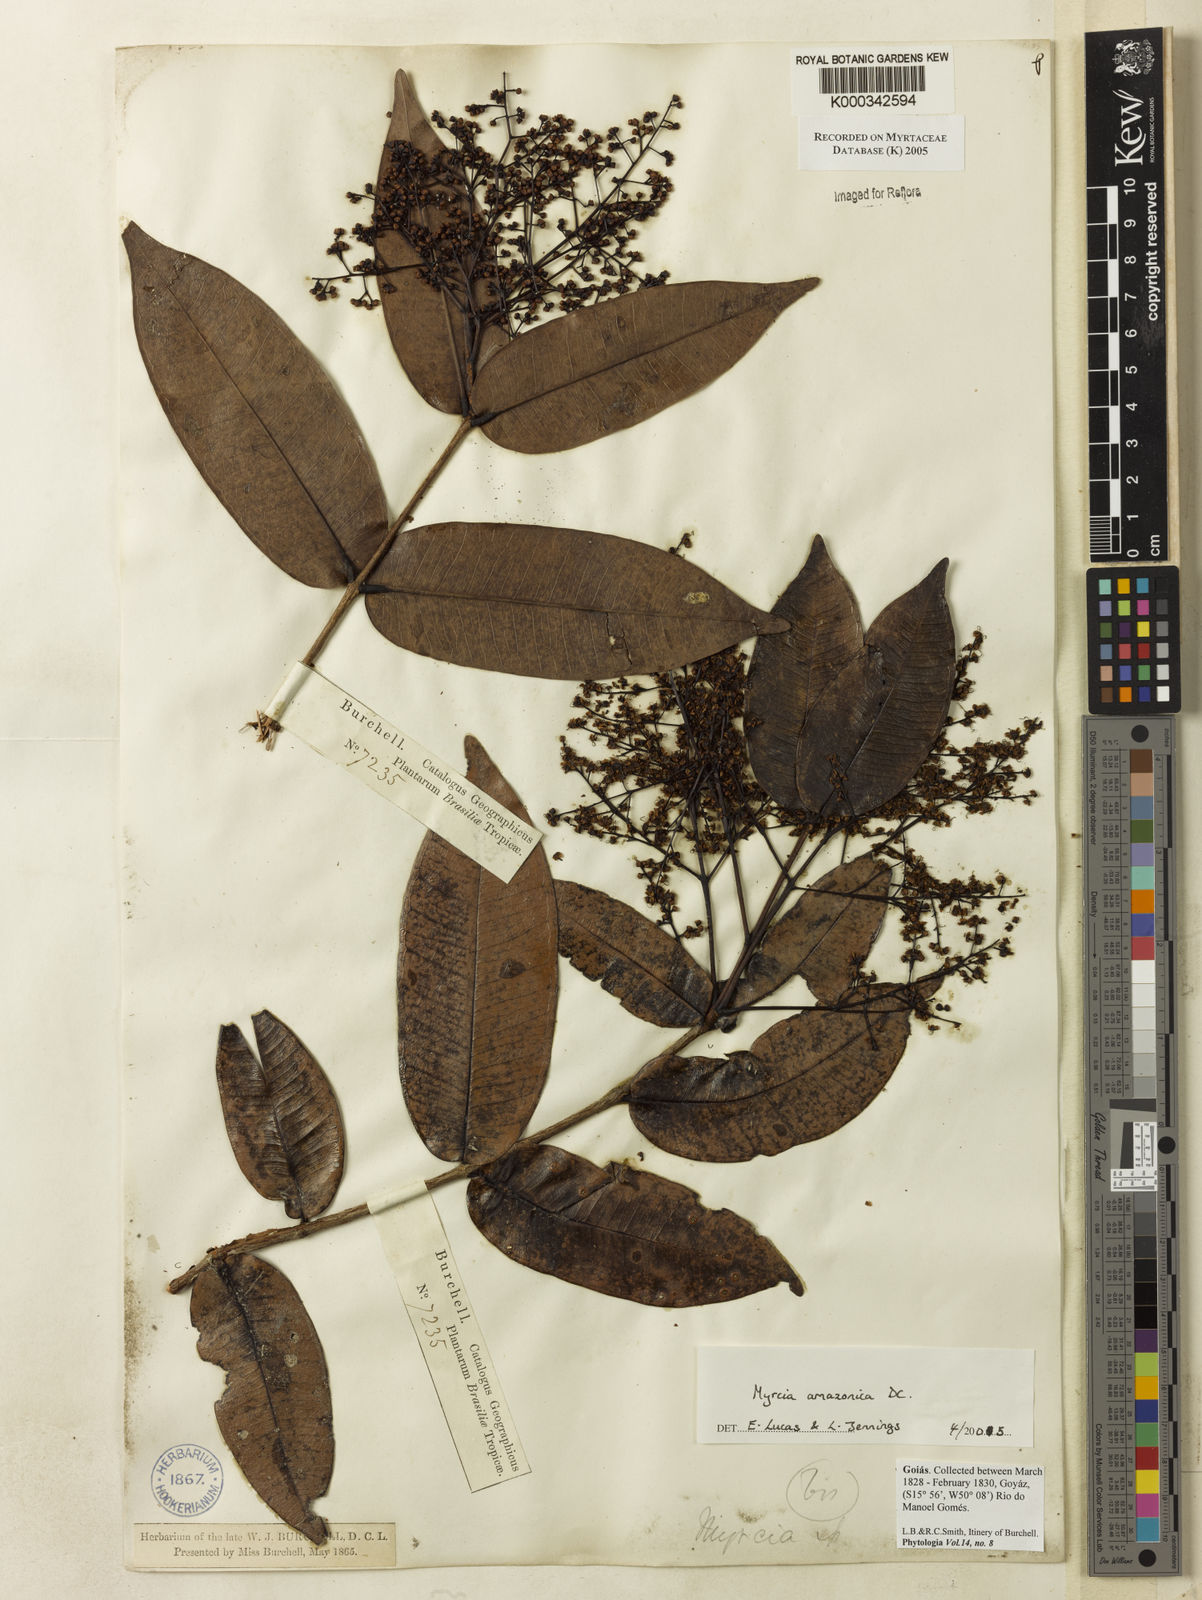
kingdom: Plantae
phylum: Tracheophyta
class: Magnoliopsida
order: Myrtales
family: Myrtaceae
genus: Myrcia
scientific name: Myrcia amazonica
